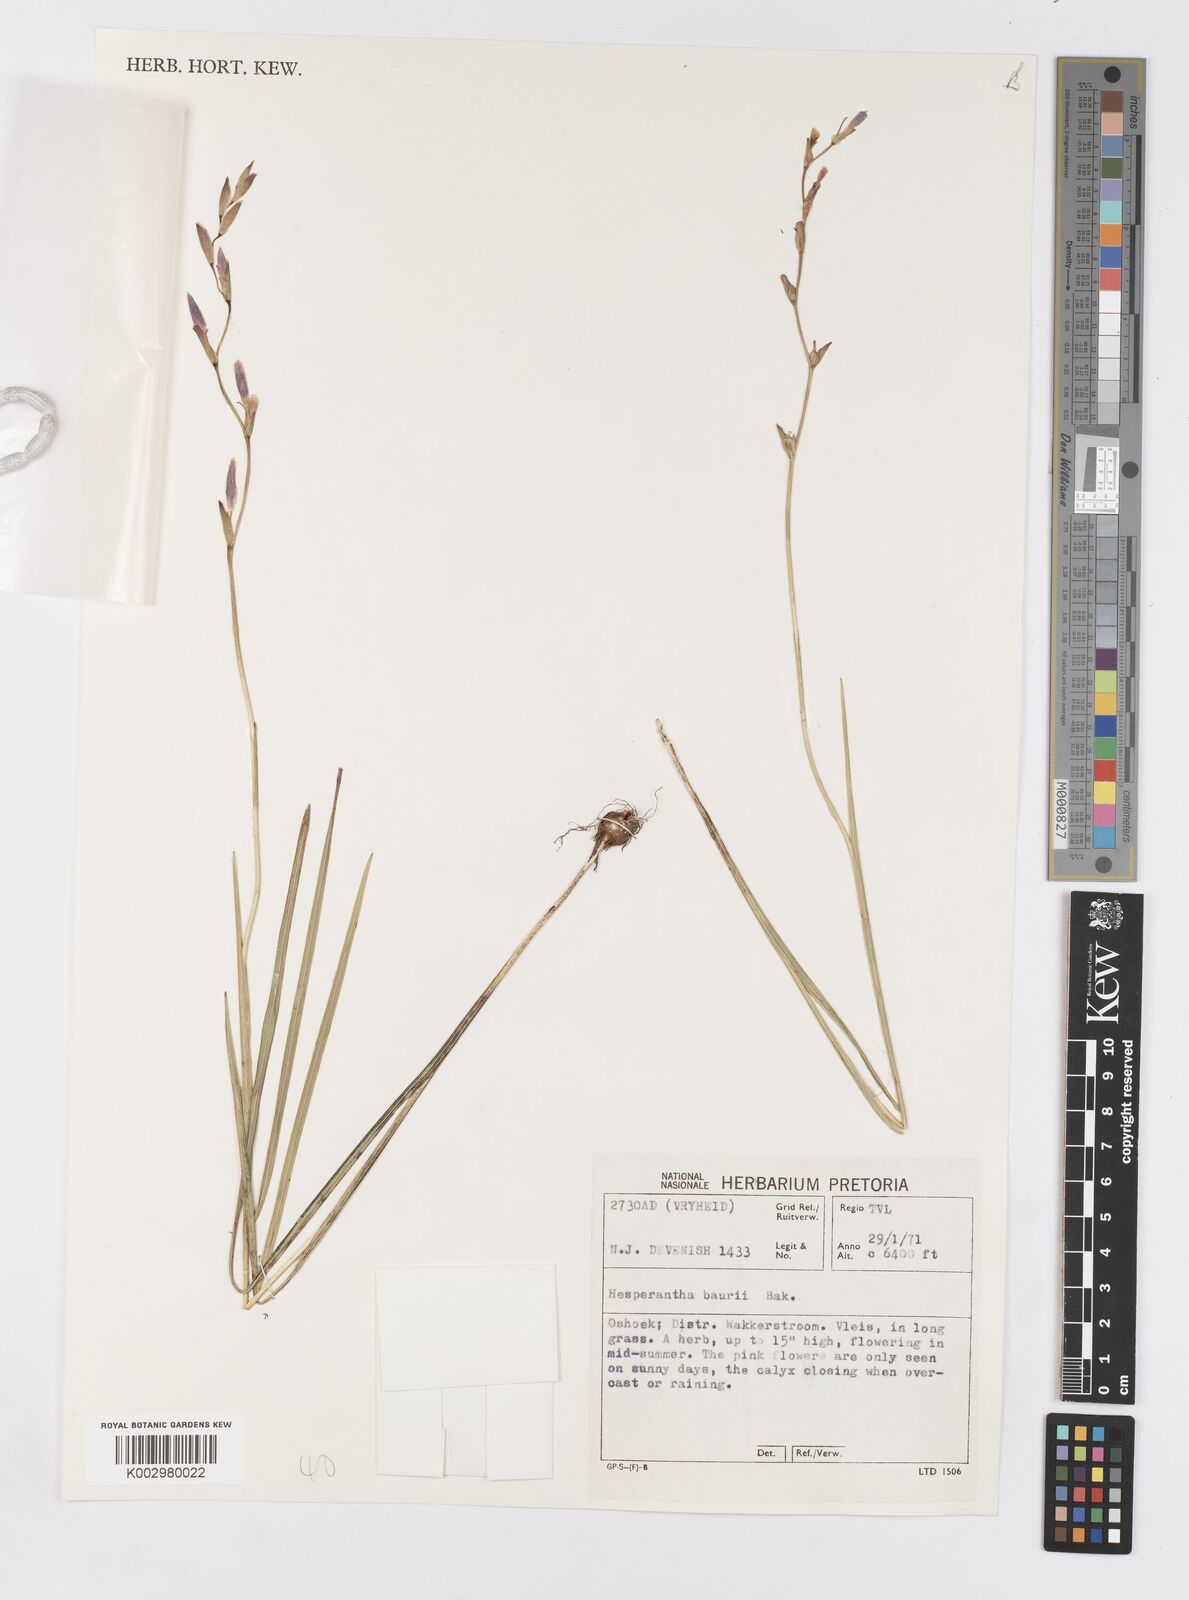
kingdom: Plantae
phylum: Tracheophyta
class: Liliopsida
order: Asparagales
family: Iridaceae
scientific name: Iridaceae
